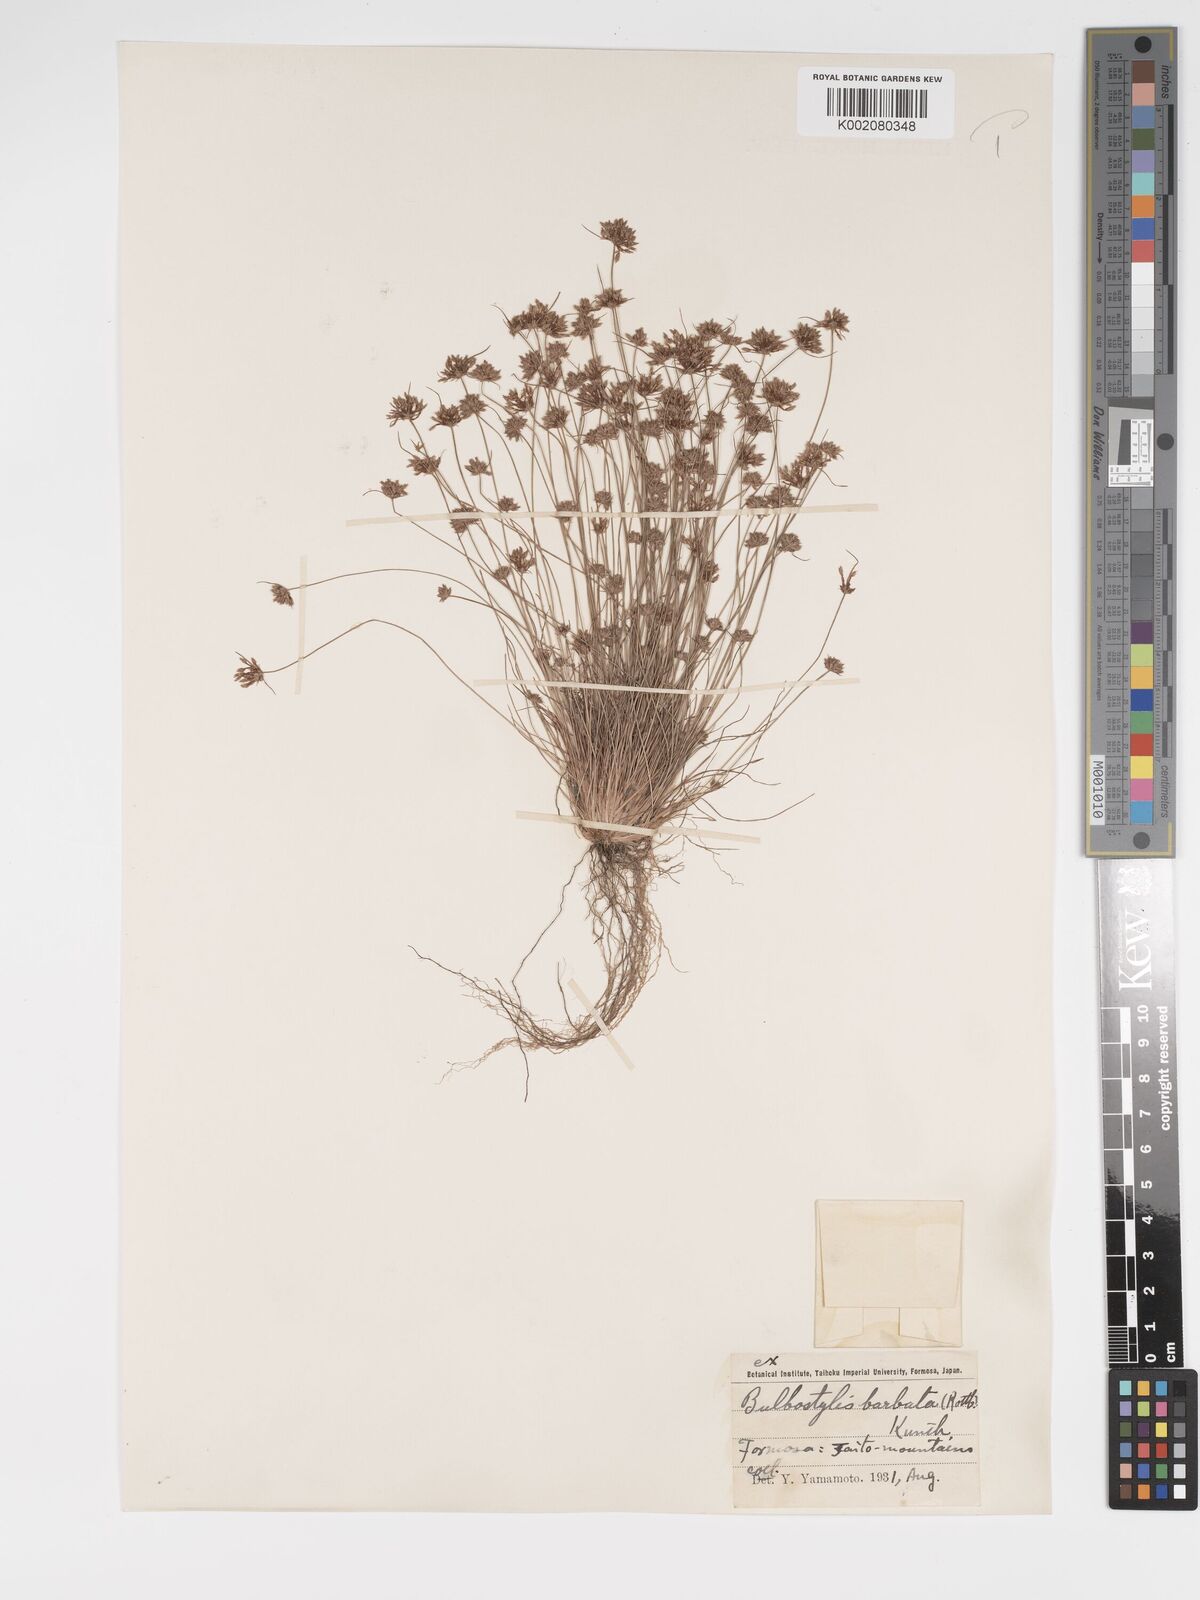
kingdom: Plantae
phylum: Tracheophyta
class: Liliopsida
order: Poales
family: Cyperaceae
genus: Bulbostylis
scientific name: Bulbostylis barbata
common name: Watergrass
